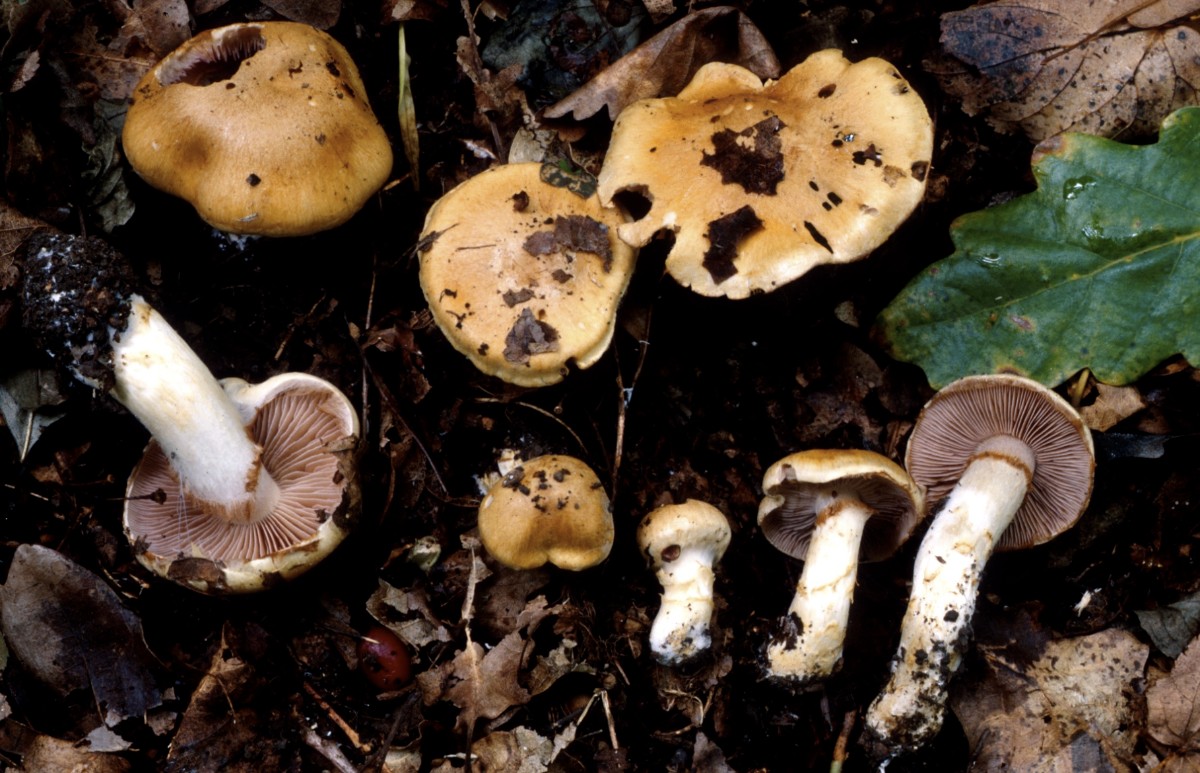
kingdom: Fungi
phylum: Basidiomycota
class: Agaricomycetes
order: Agaricales
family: Cortinariaceae
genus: Phlegmacium
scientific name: Phlegmacium tiliae
